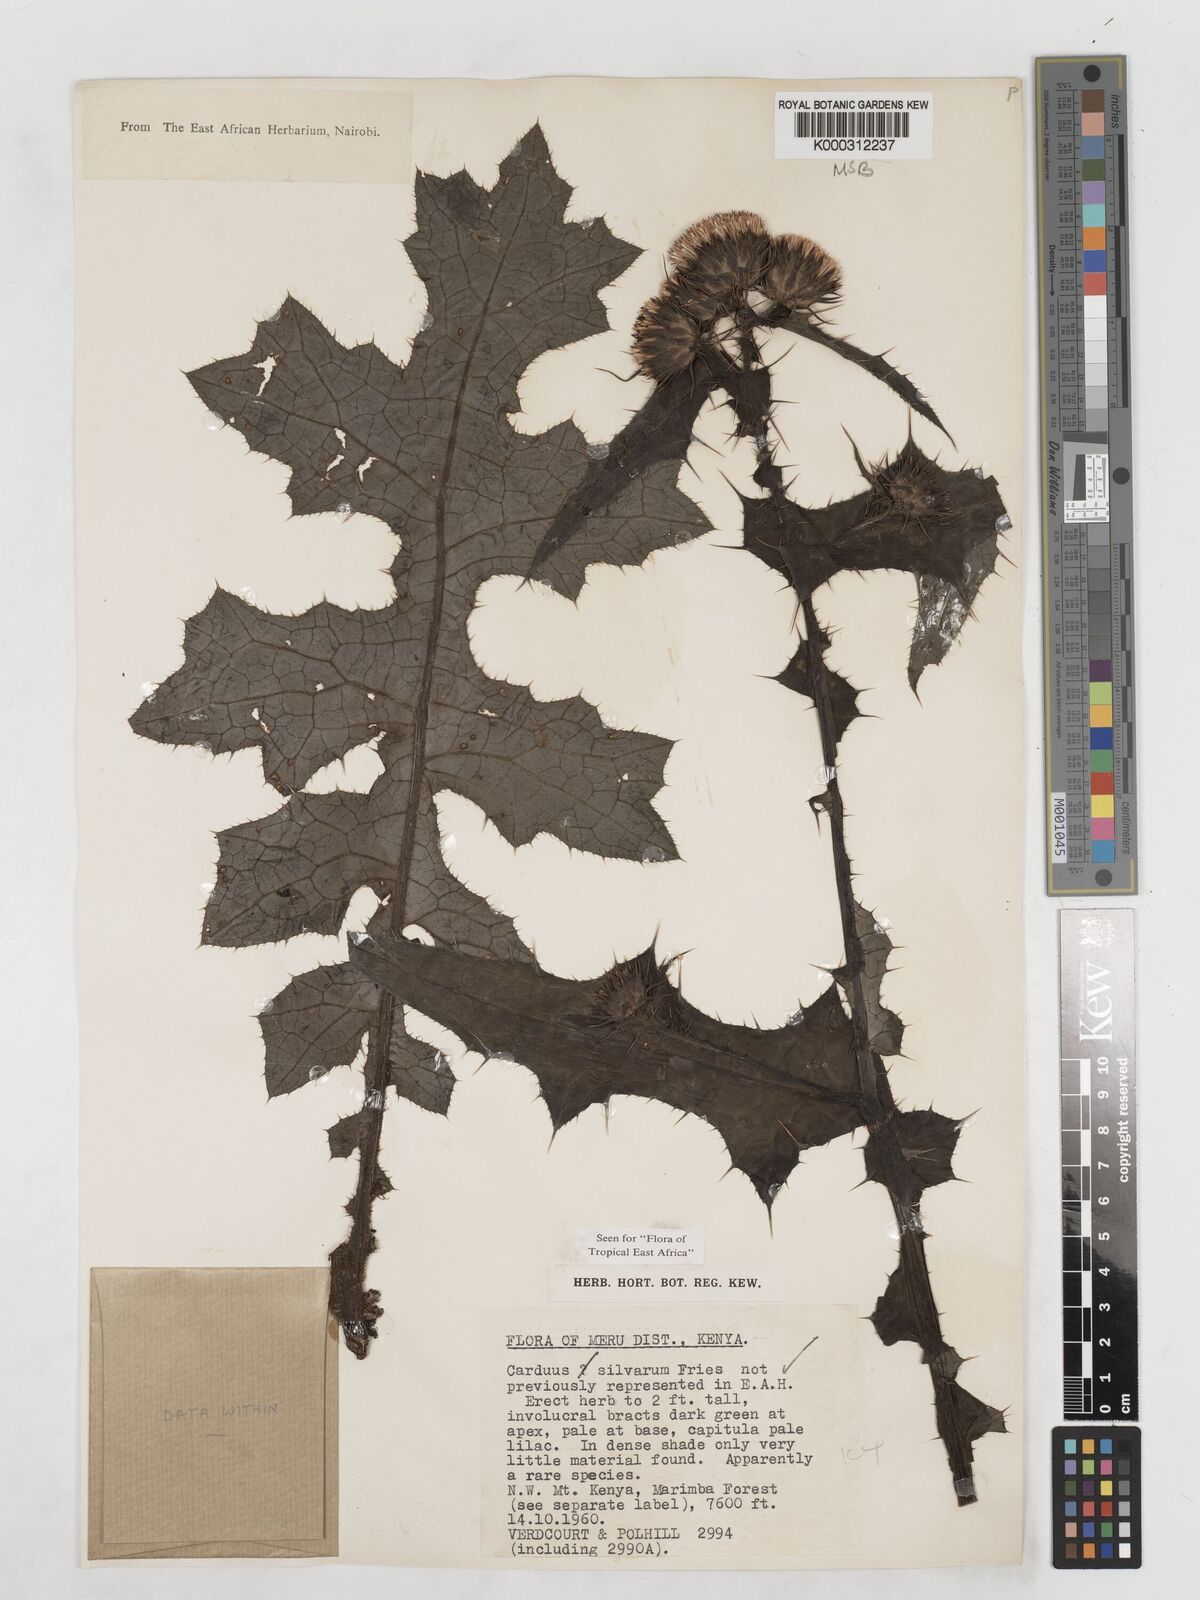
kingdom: Plantae
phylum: Tracheophyta
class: Magnoliopsida
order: Asterales
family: Asteraceae
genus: Carduus
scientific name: Carduus silvarum
